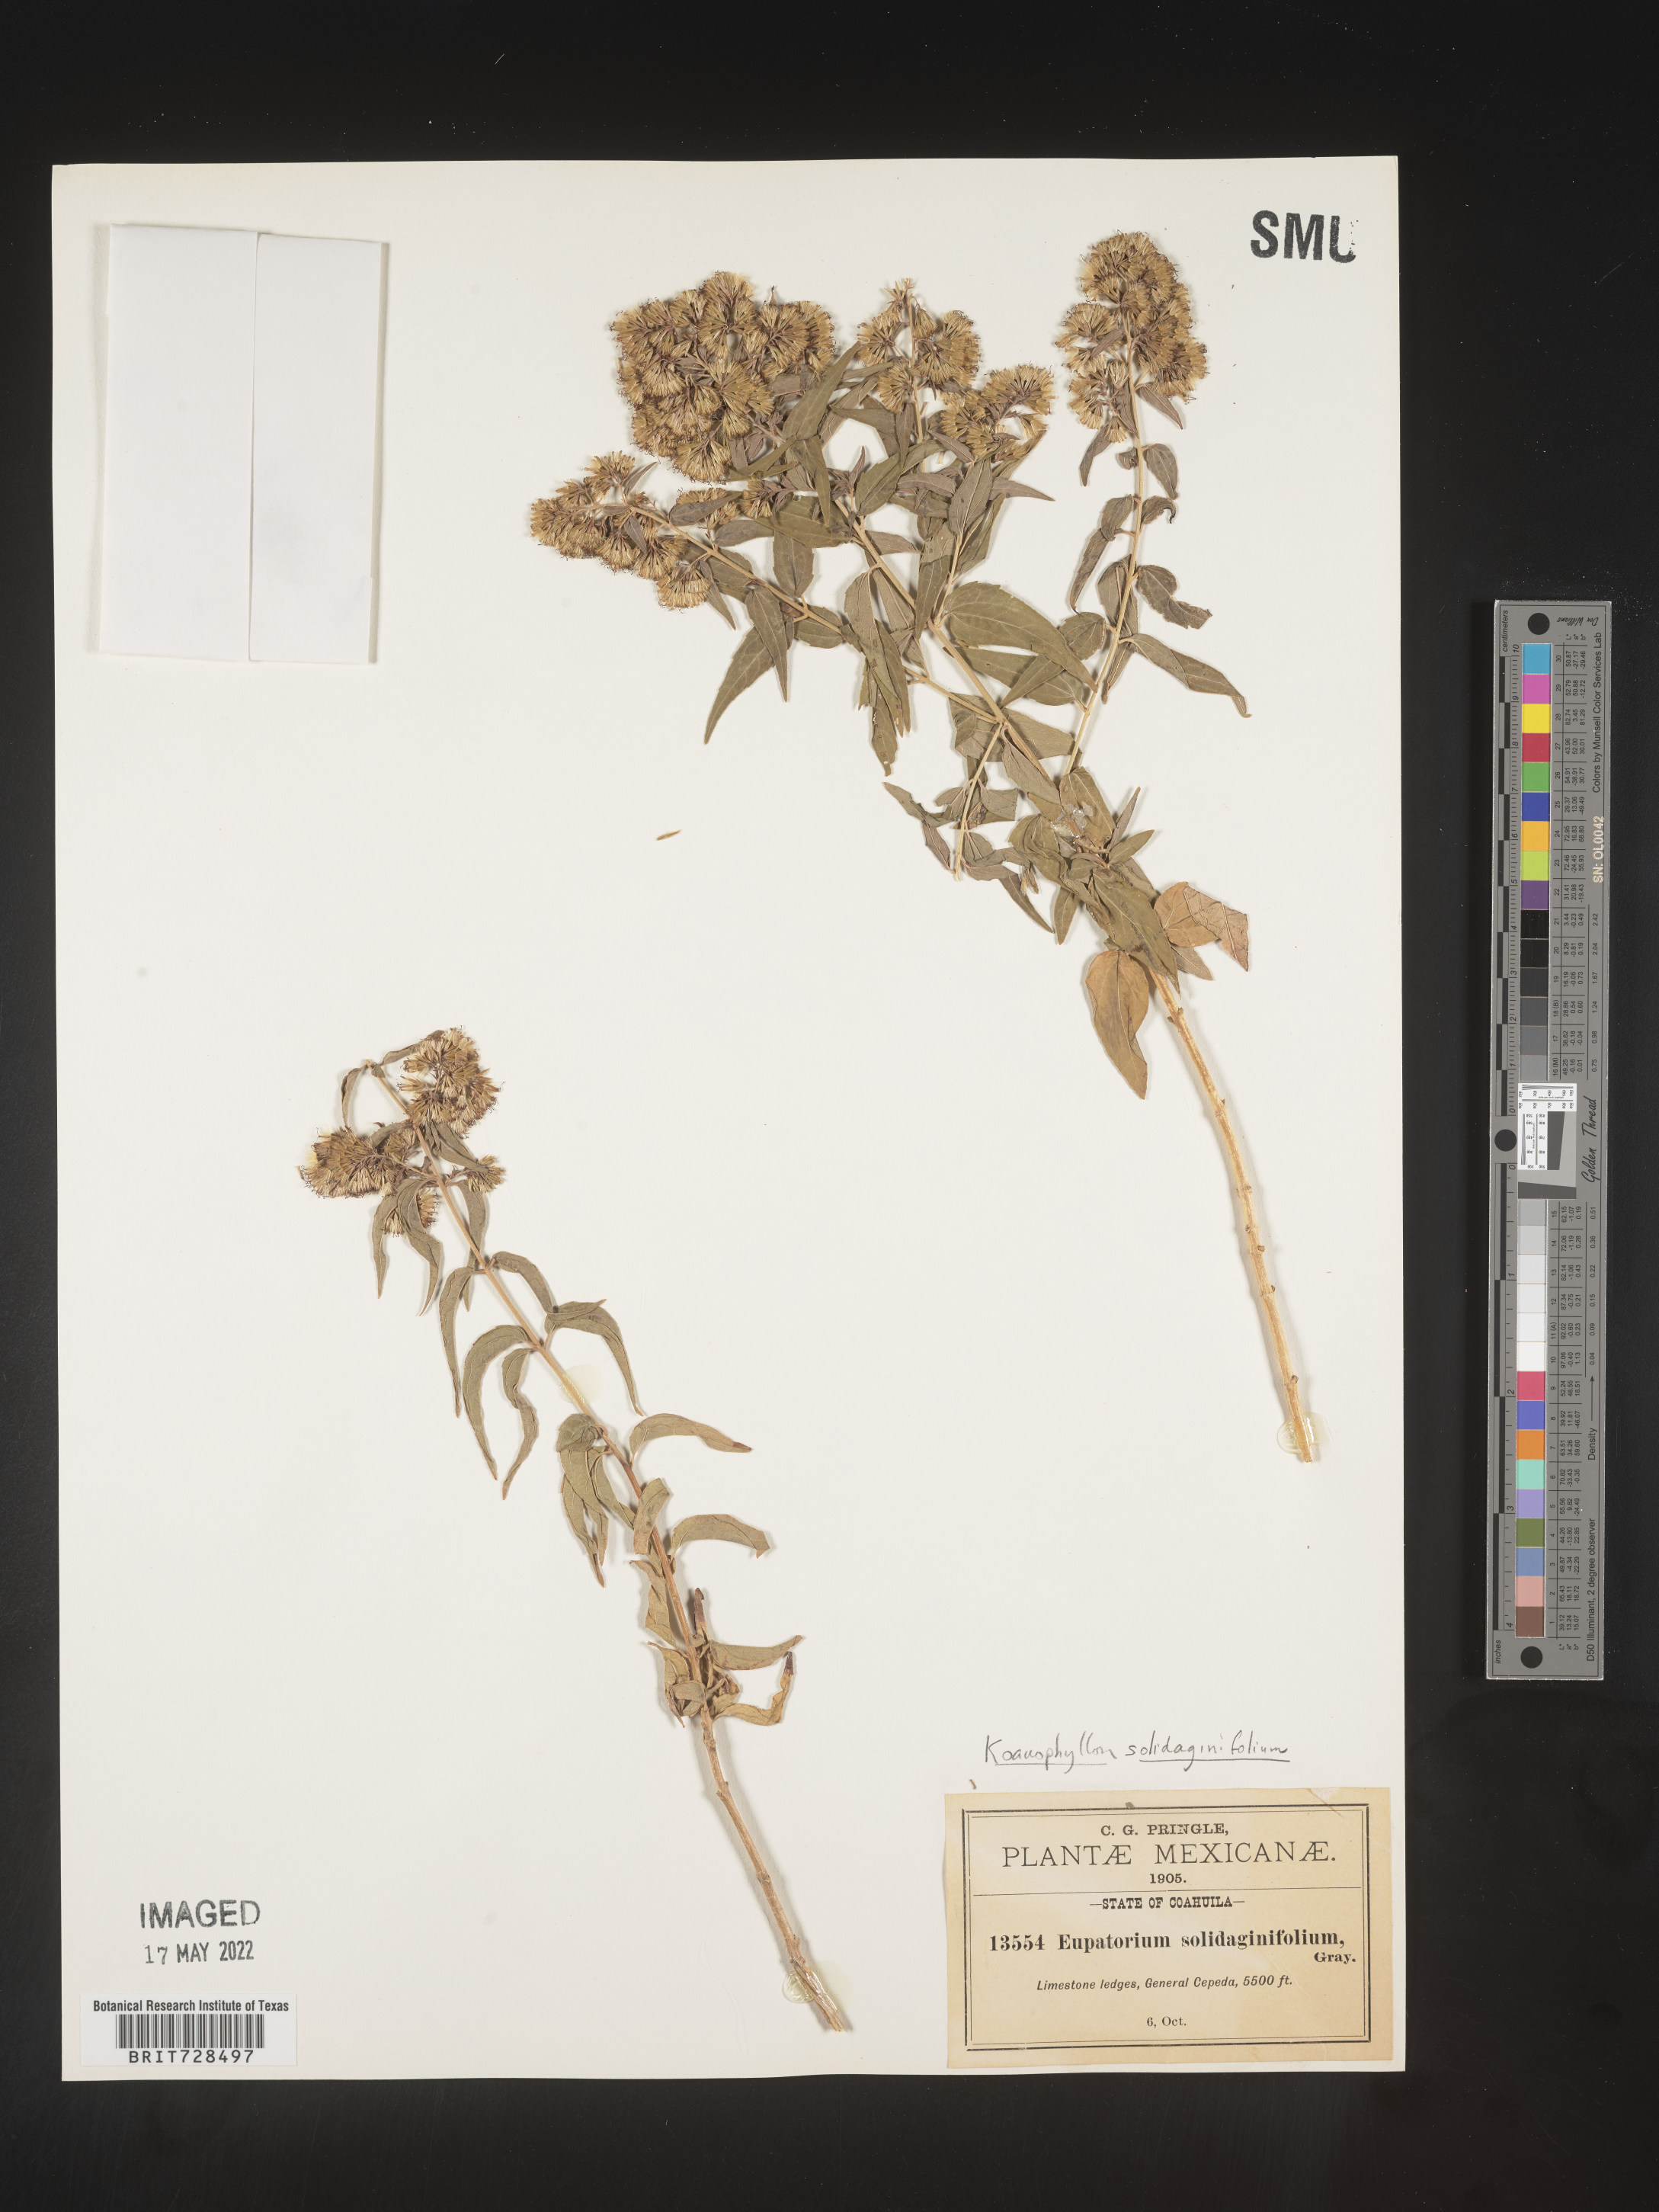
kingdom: Plantae
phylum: Tracheophyta
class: Magnoliopsida
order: Asterales
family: Asteraceae
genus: Koanophyllon
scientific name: Koanophyllon
